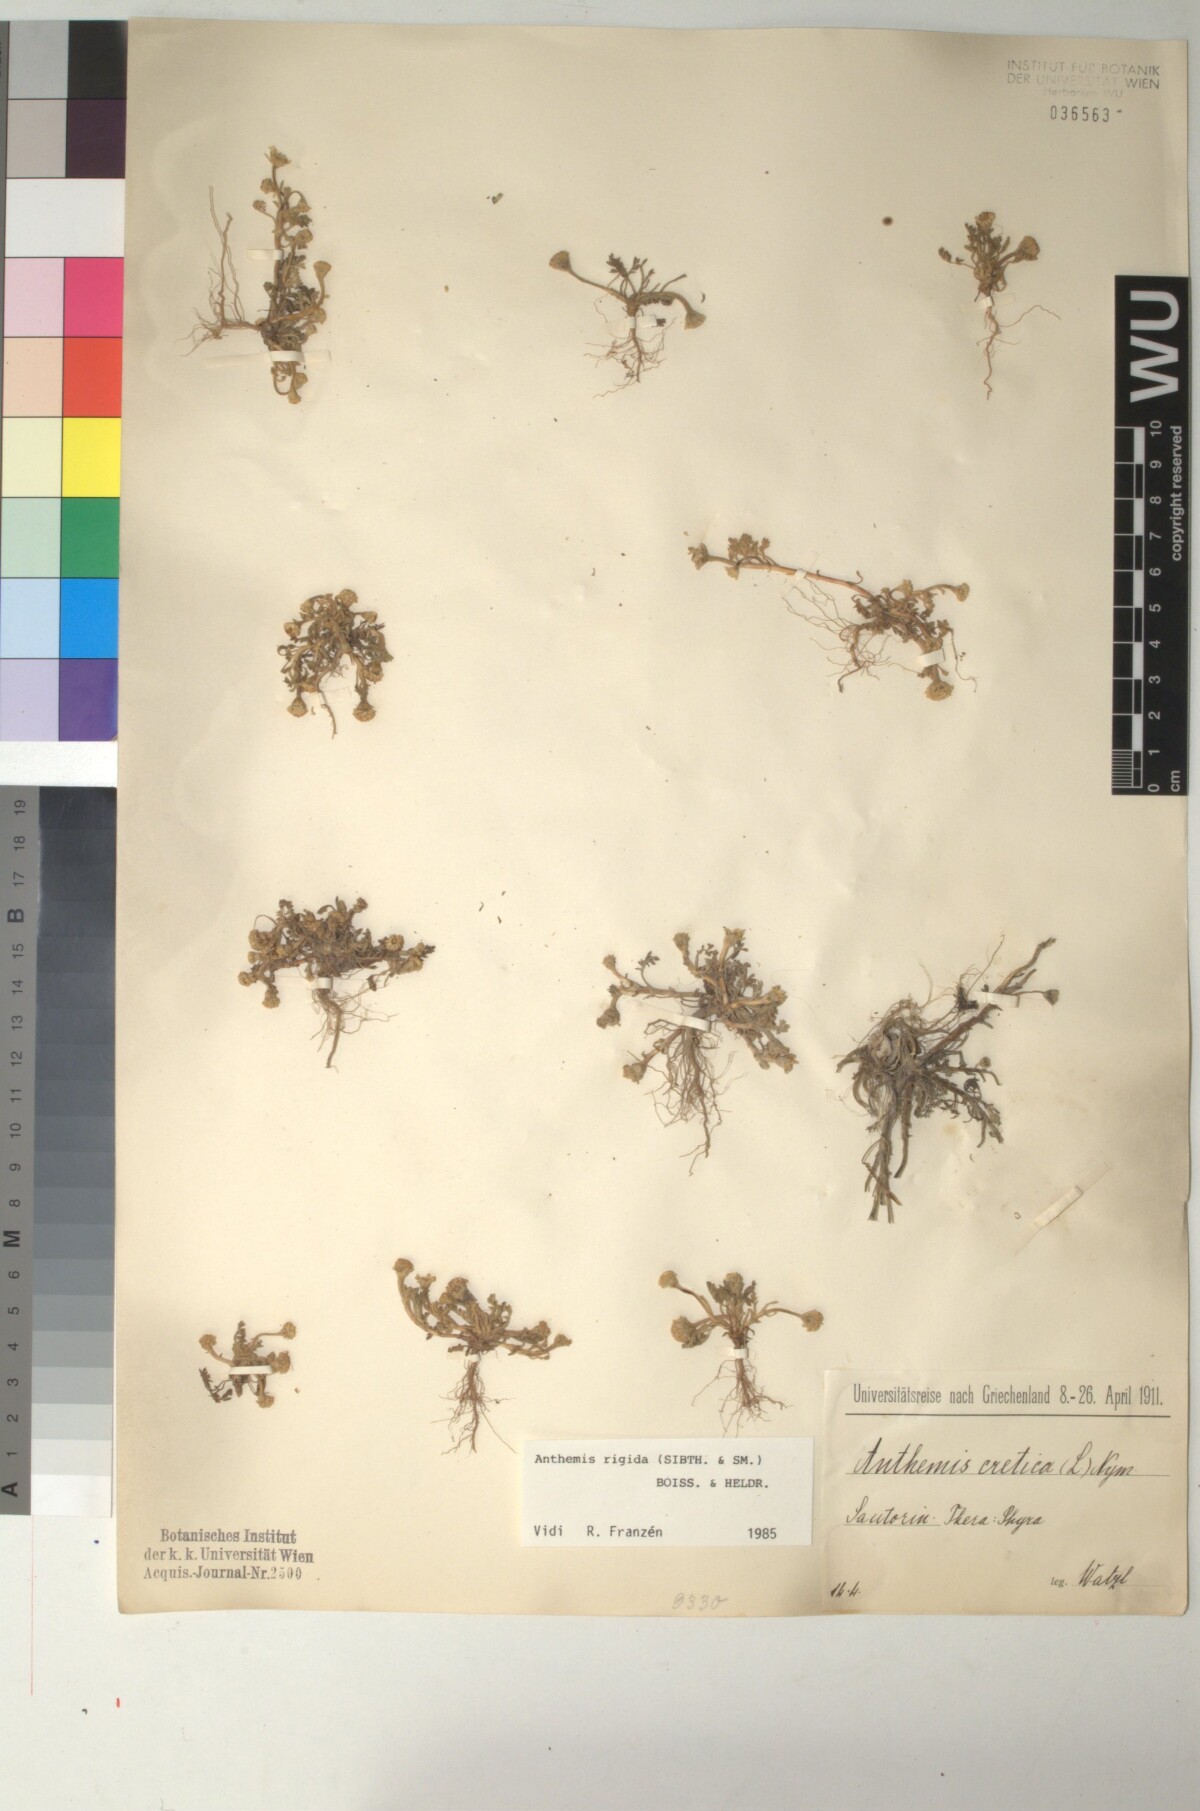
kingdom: Plantae
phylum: Tracheophyta
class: Magnoliopsida
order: Asterales
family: Asteraceae
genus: Anthemis
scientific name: Anthemis rigida
